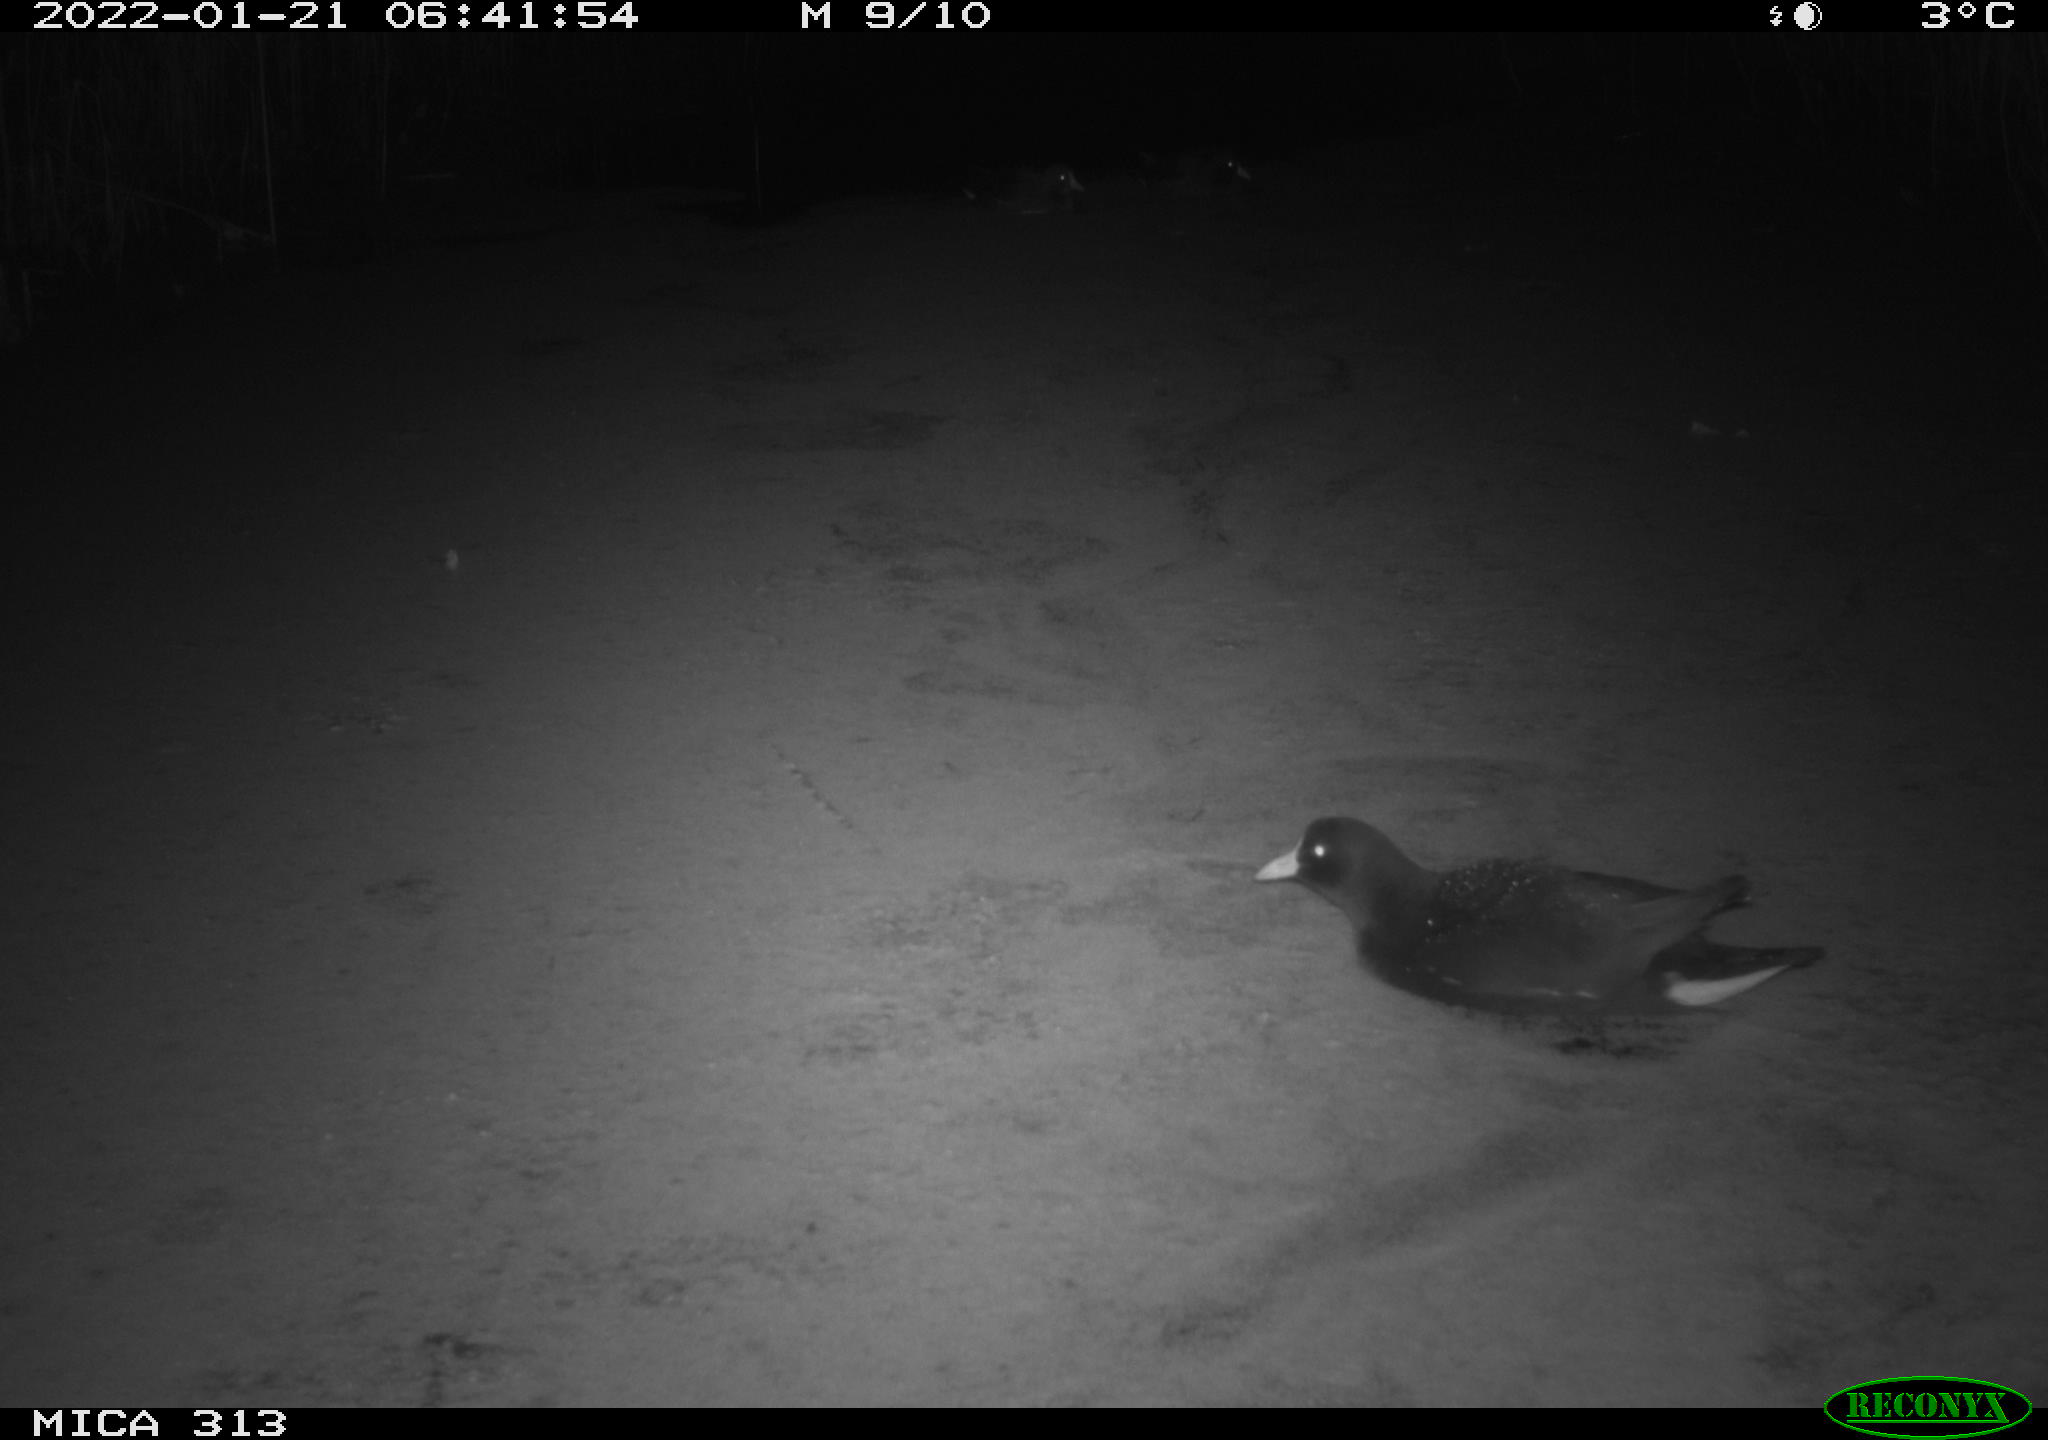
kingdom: Animalia
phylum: Chordata
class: Aves
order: Anseriformes
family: Anatidae
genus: Anas
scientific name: Anas
